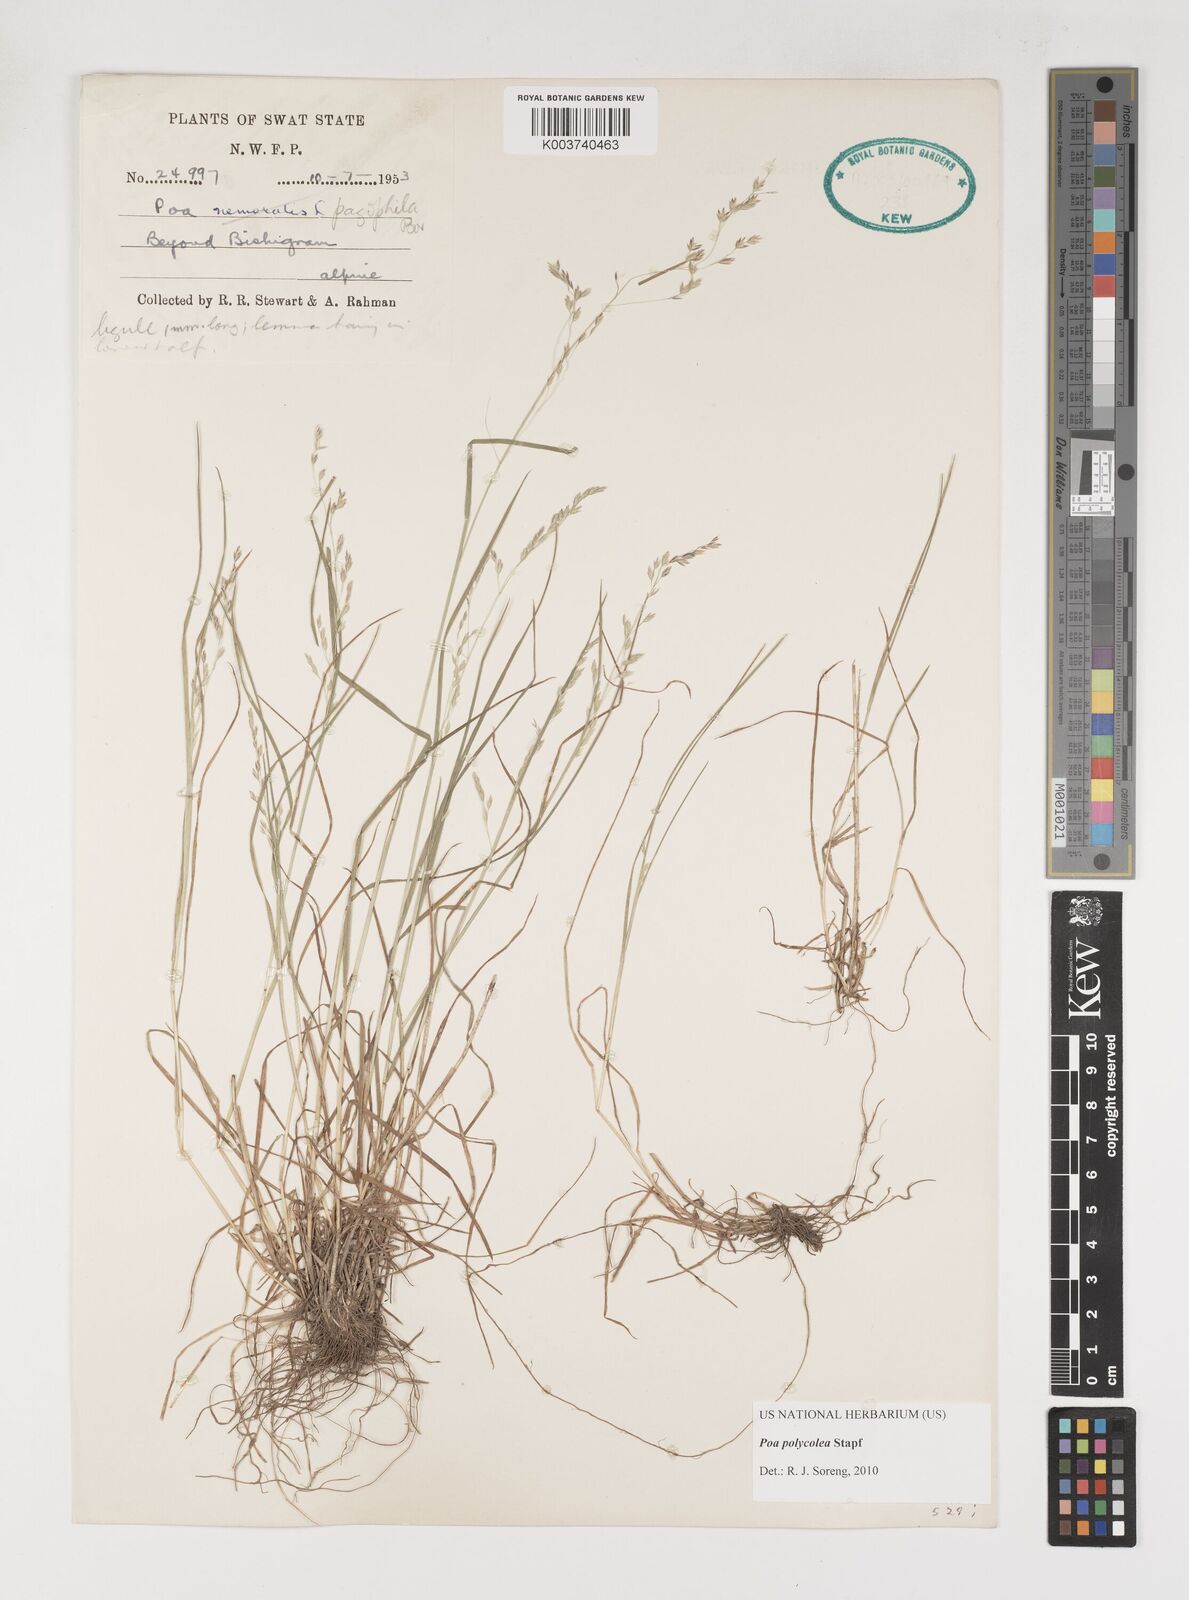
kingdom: Plantae
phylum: Tracheophyta
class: Liliopsida
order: Poales
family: Poaceae
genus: Poa
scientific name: Poa polycolea
